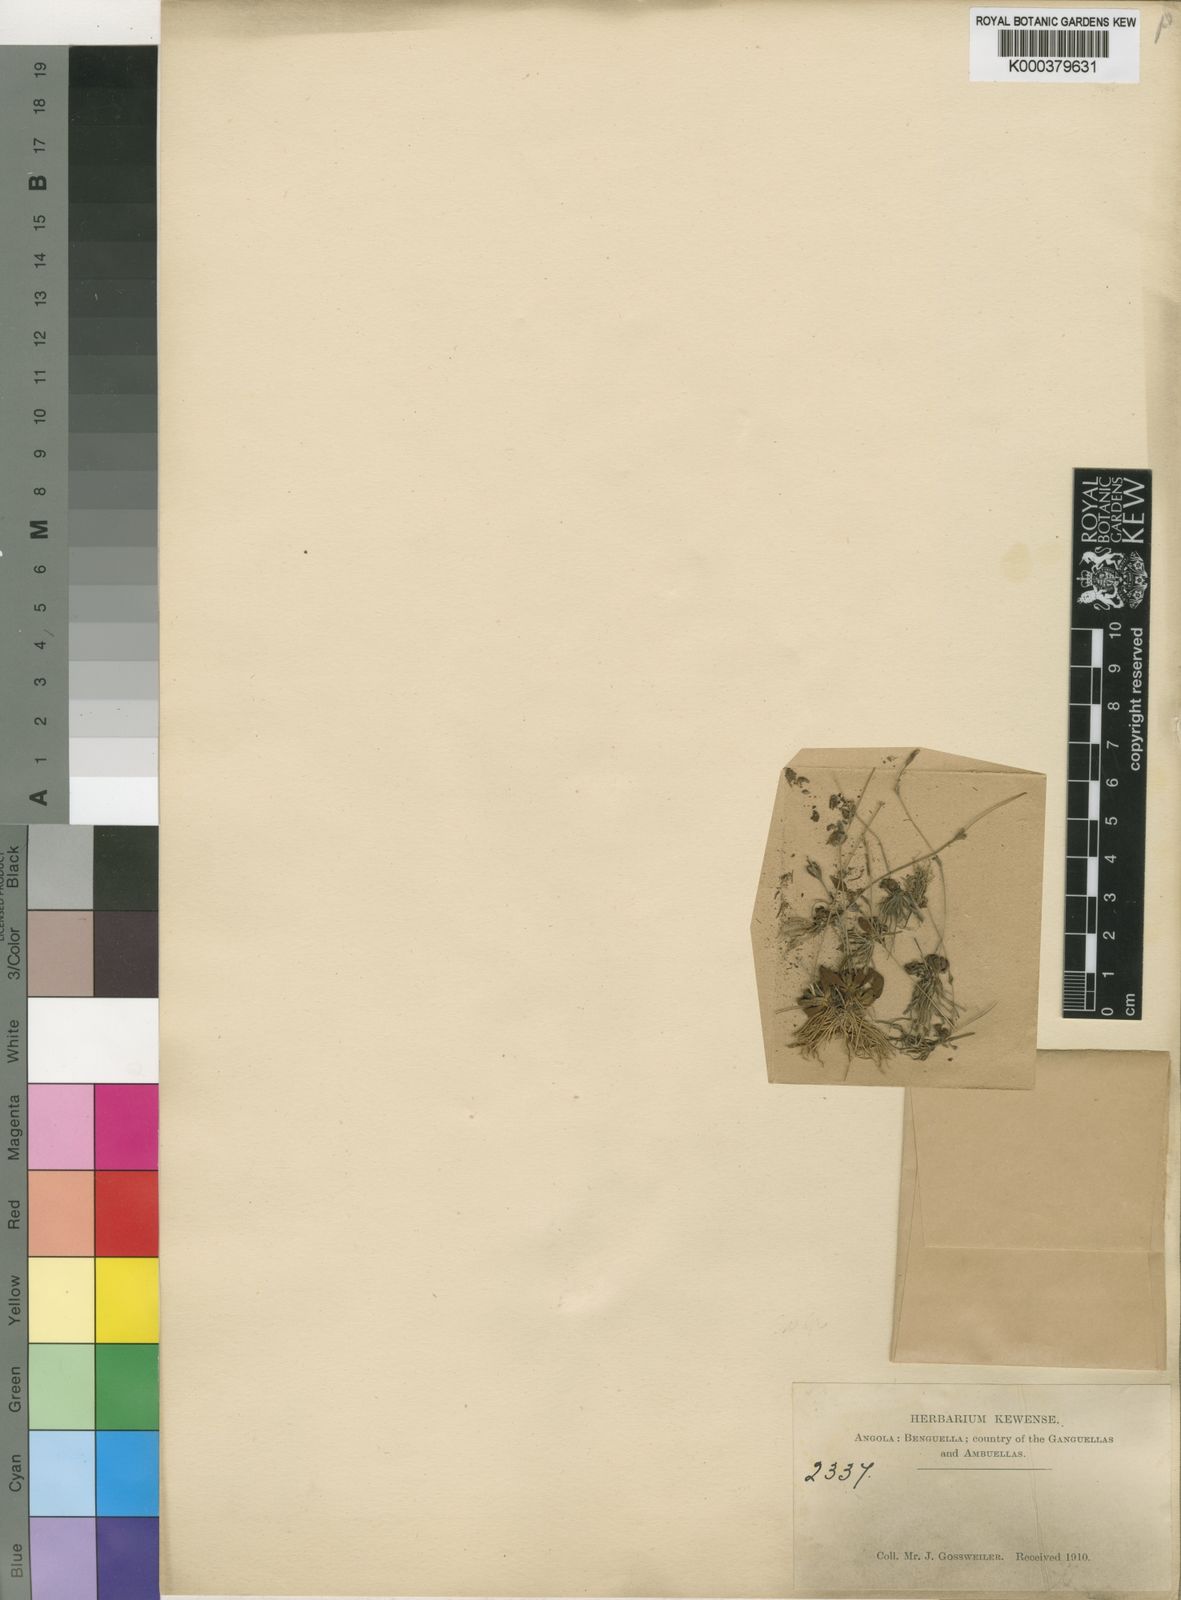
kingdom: Plantae
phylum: Tracheophyta
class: Magnoliopsida
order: Lamiales
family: Linderniaceae
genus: Craterostigma
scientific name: Craterostigma
